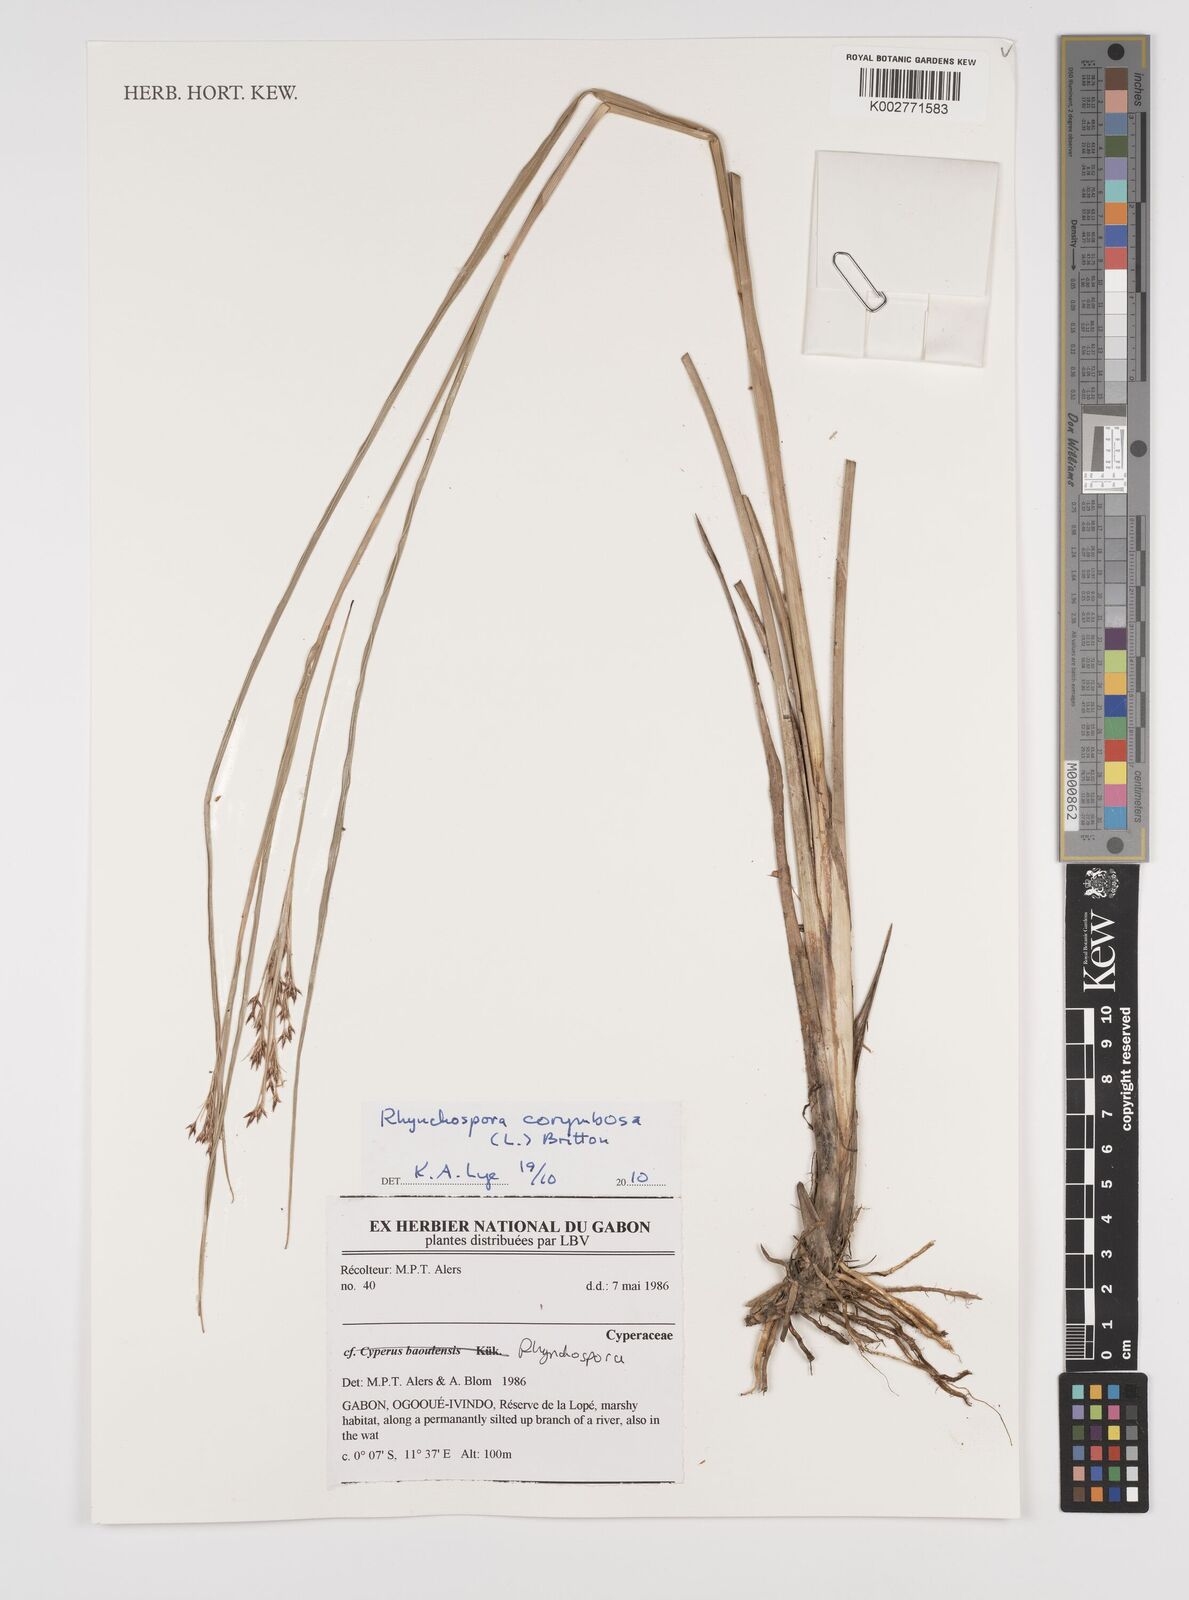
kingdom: Plantae
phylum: Tracheophyta
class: Liliopsida
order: Poales
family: Cyperaceae
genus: Rhynchospora
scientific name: Rhynchospora corymbosa
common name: Golden beak sedge
